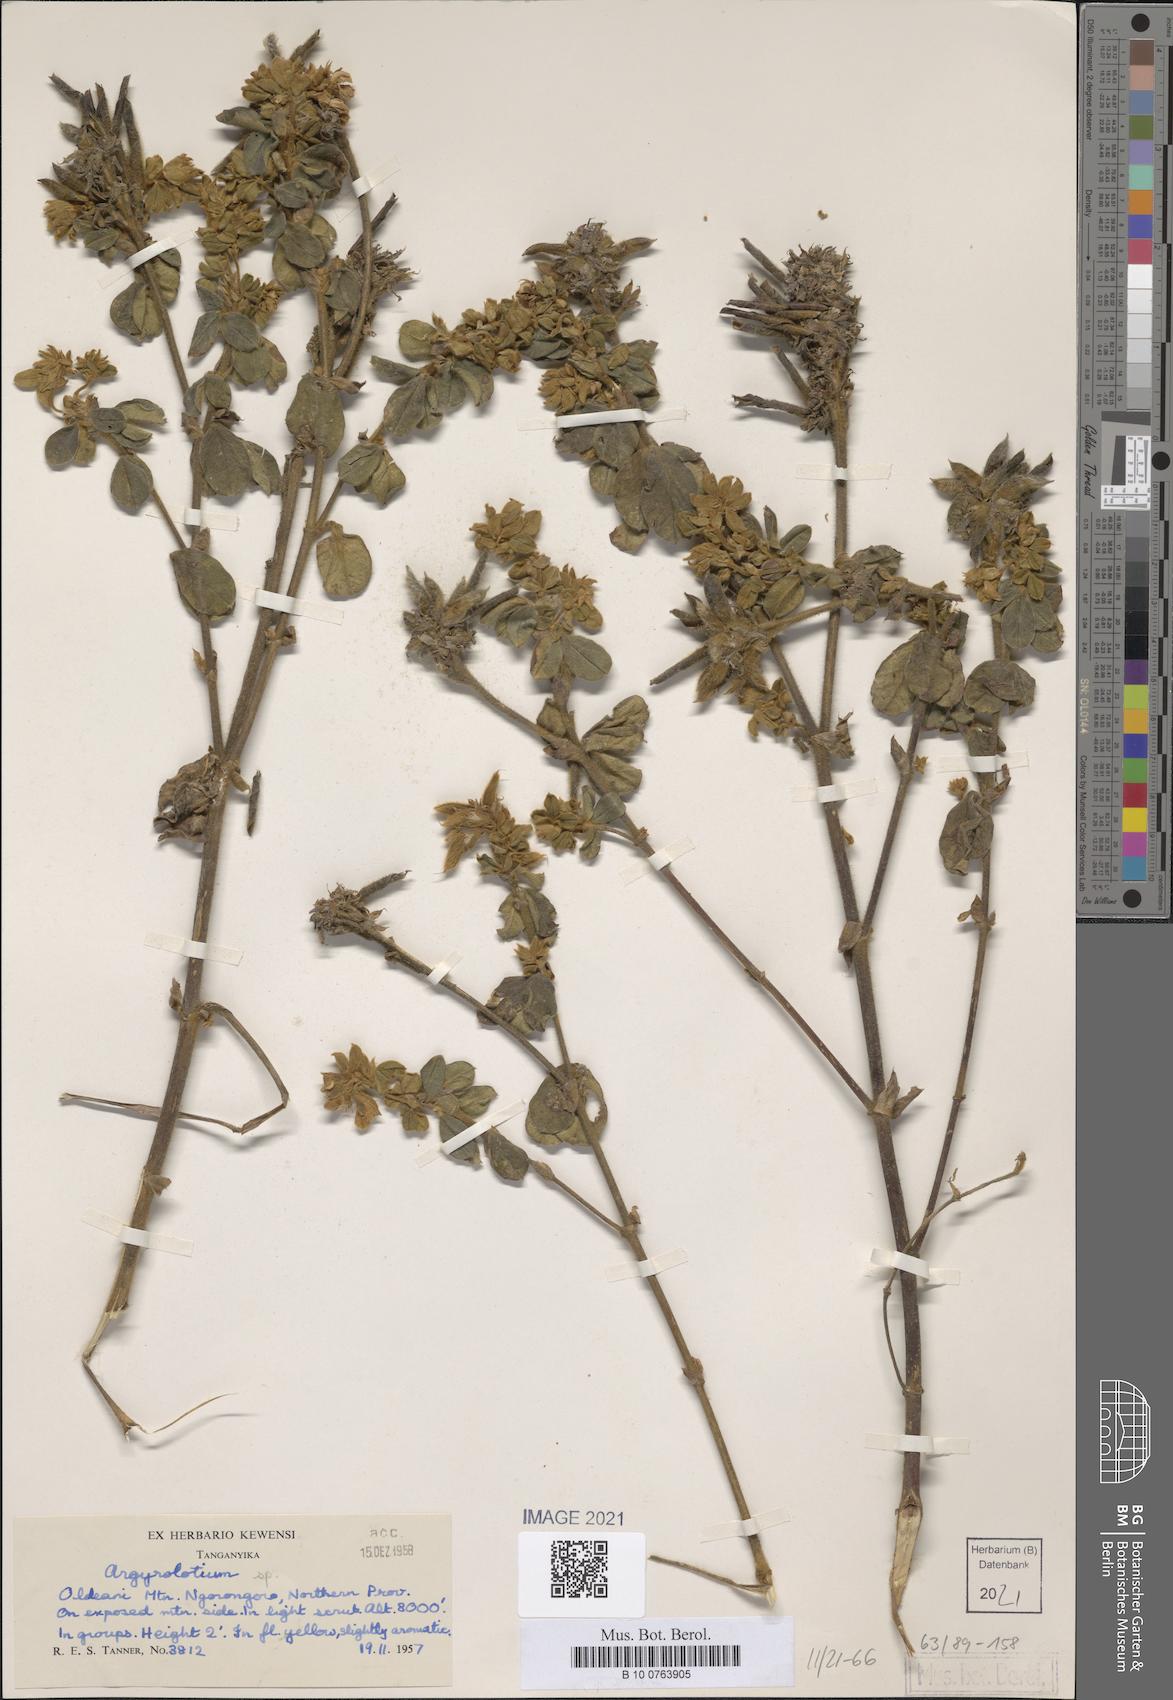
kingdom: Plantae
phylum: Tracheophyta
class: Magnoliopsida
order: Fabales
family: Fabaceae
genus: Argyrolobium
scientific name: Argyrolobium
